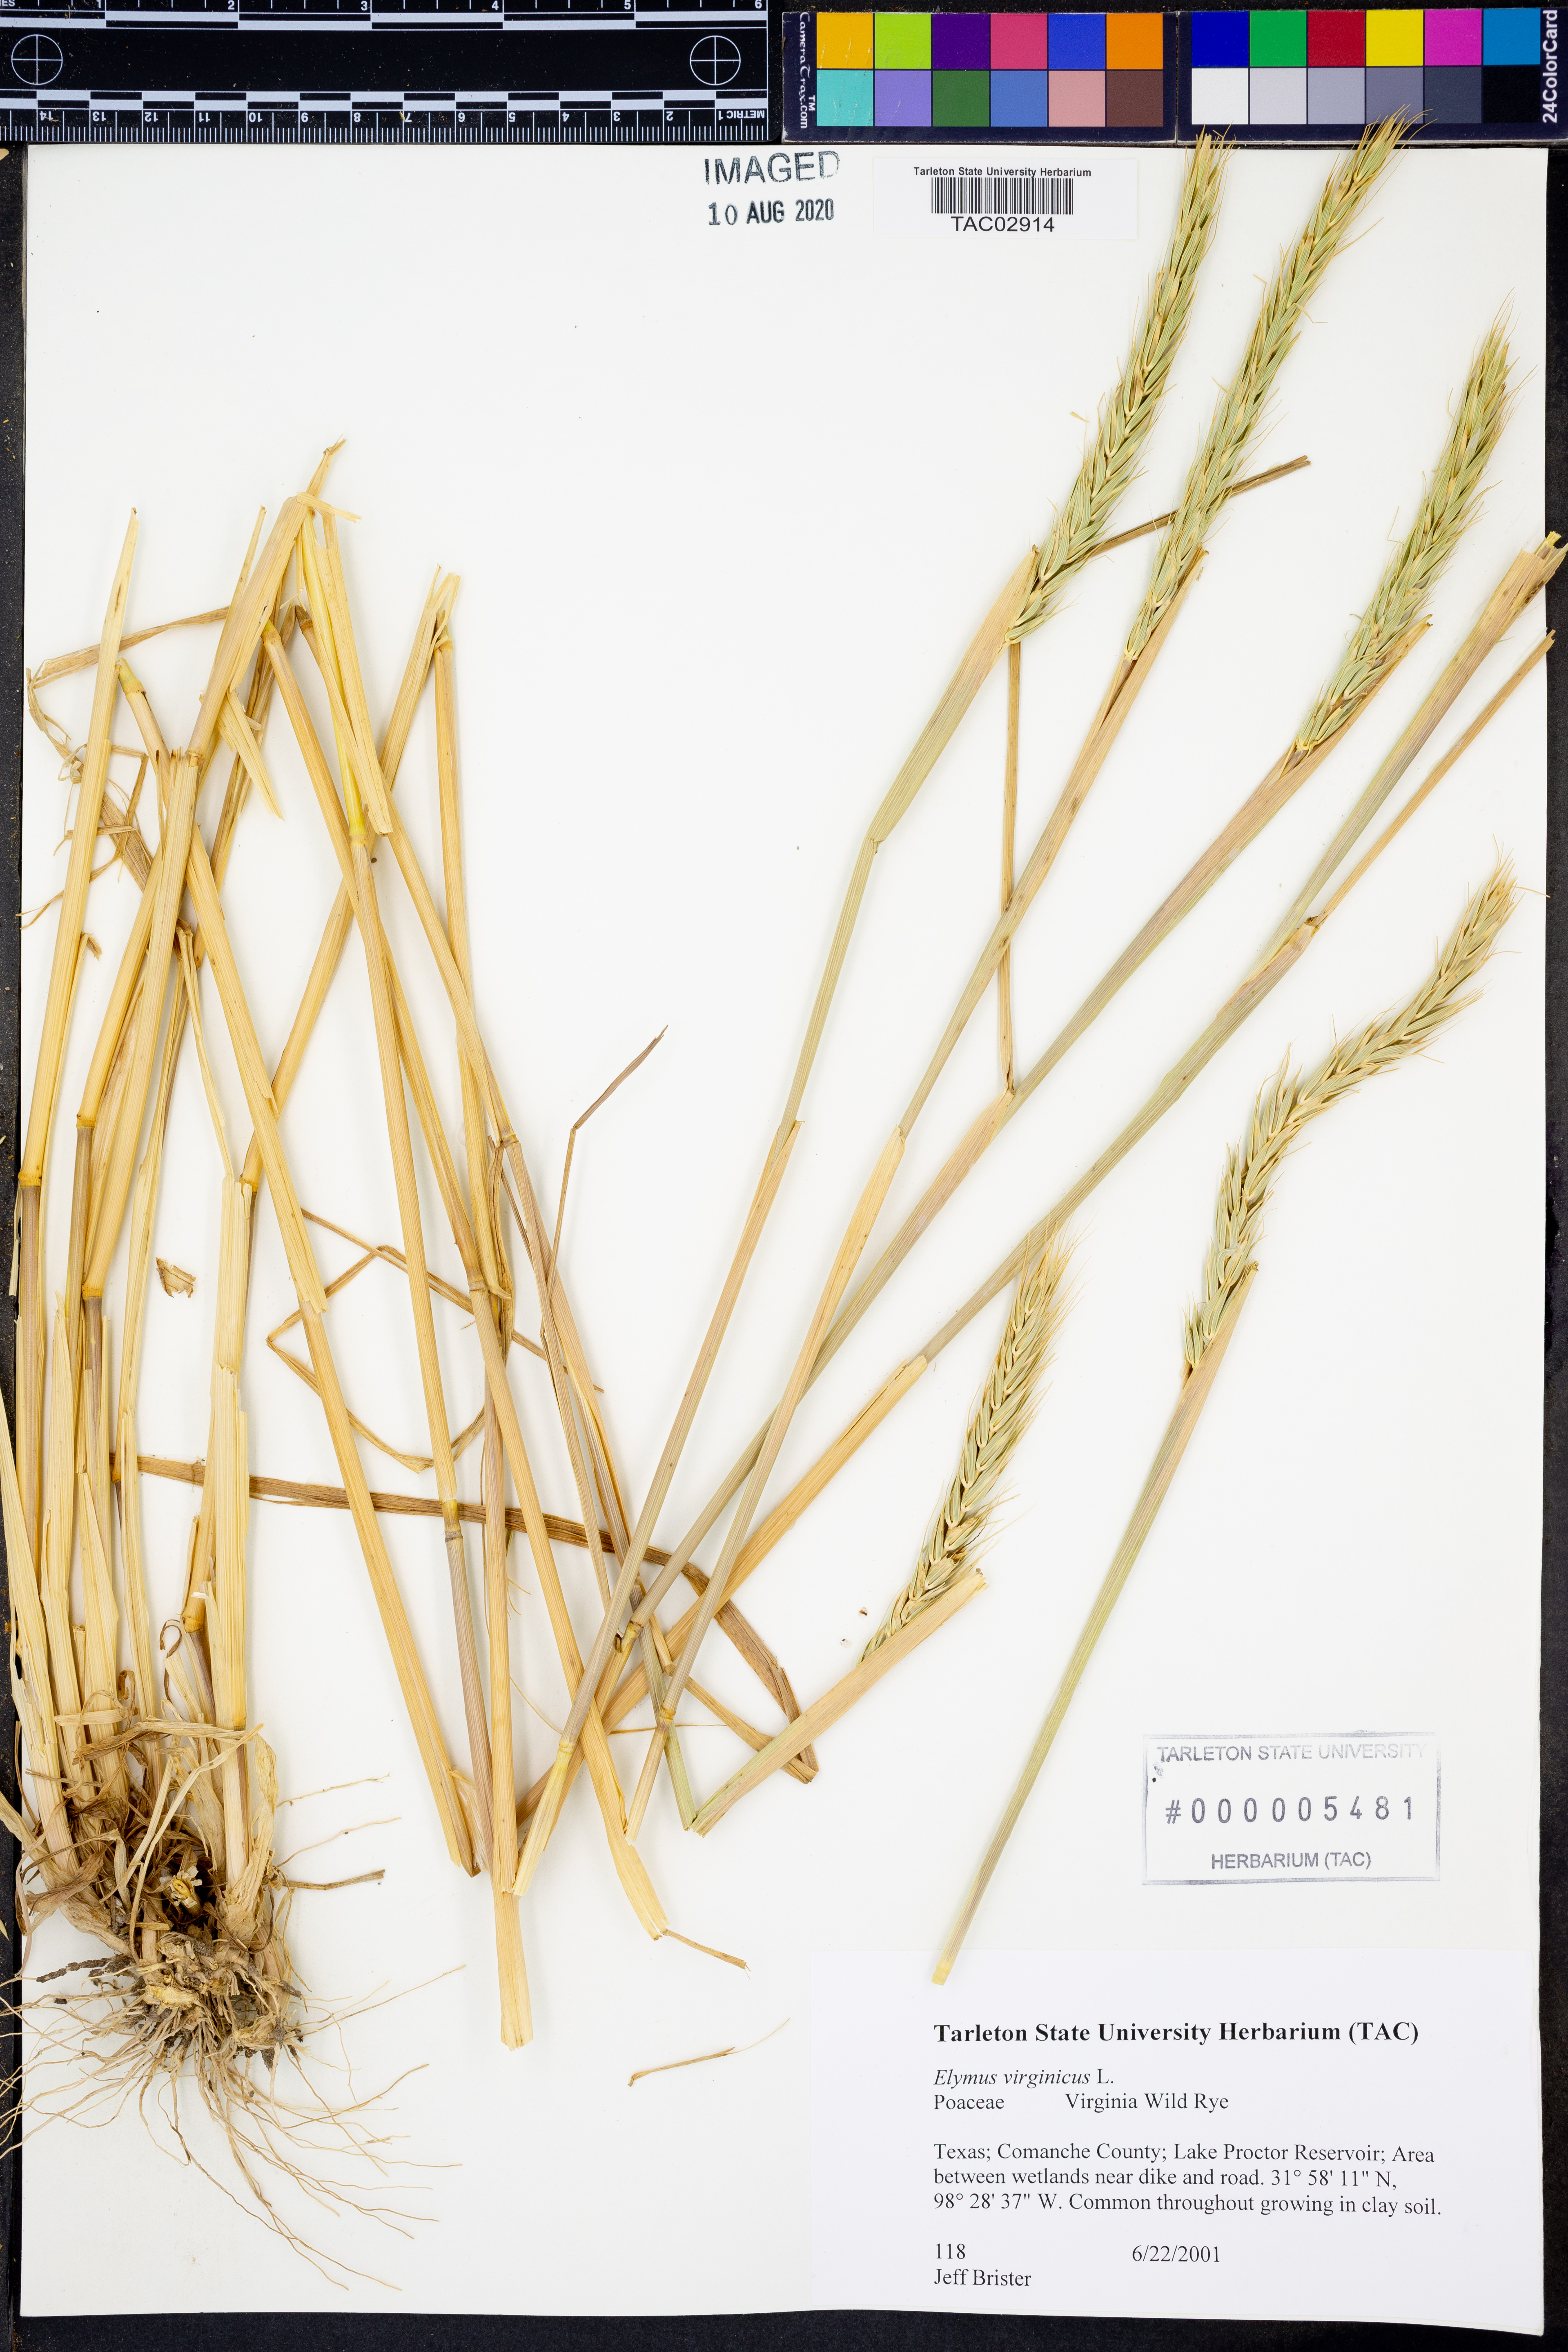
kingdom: Plantae
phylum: Tracheophyta
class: Liliopsida
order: Poales
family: Poaceae
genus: Elymus
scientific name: Elymus virginicus
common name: Common eastern wildrye
